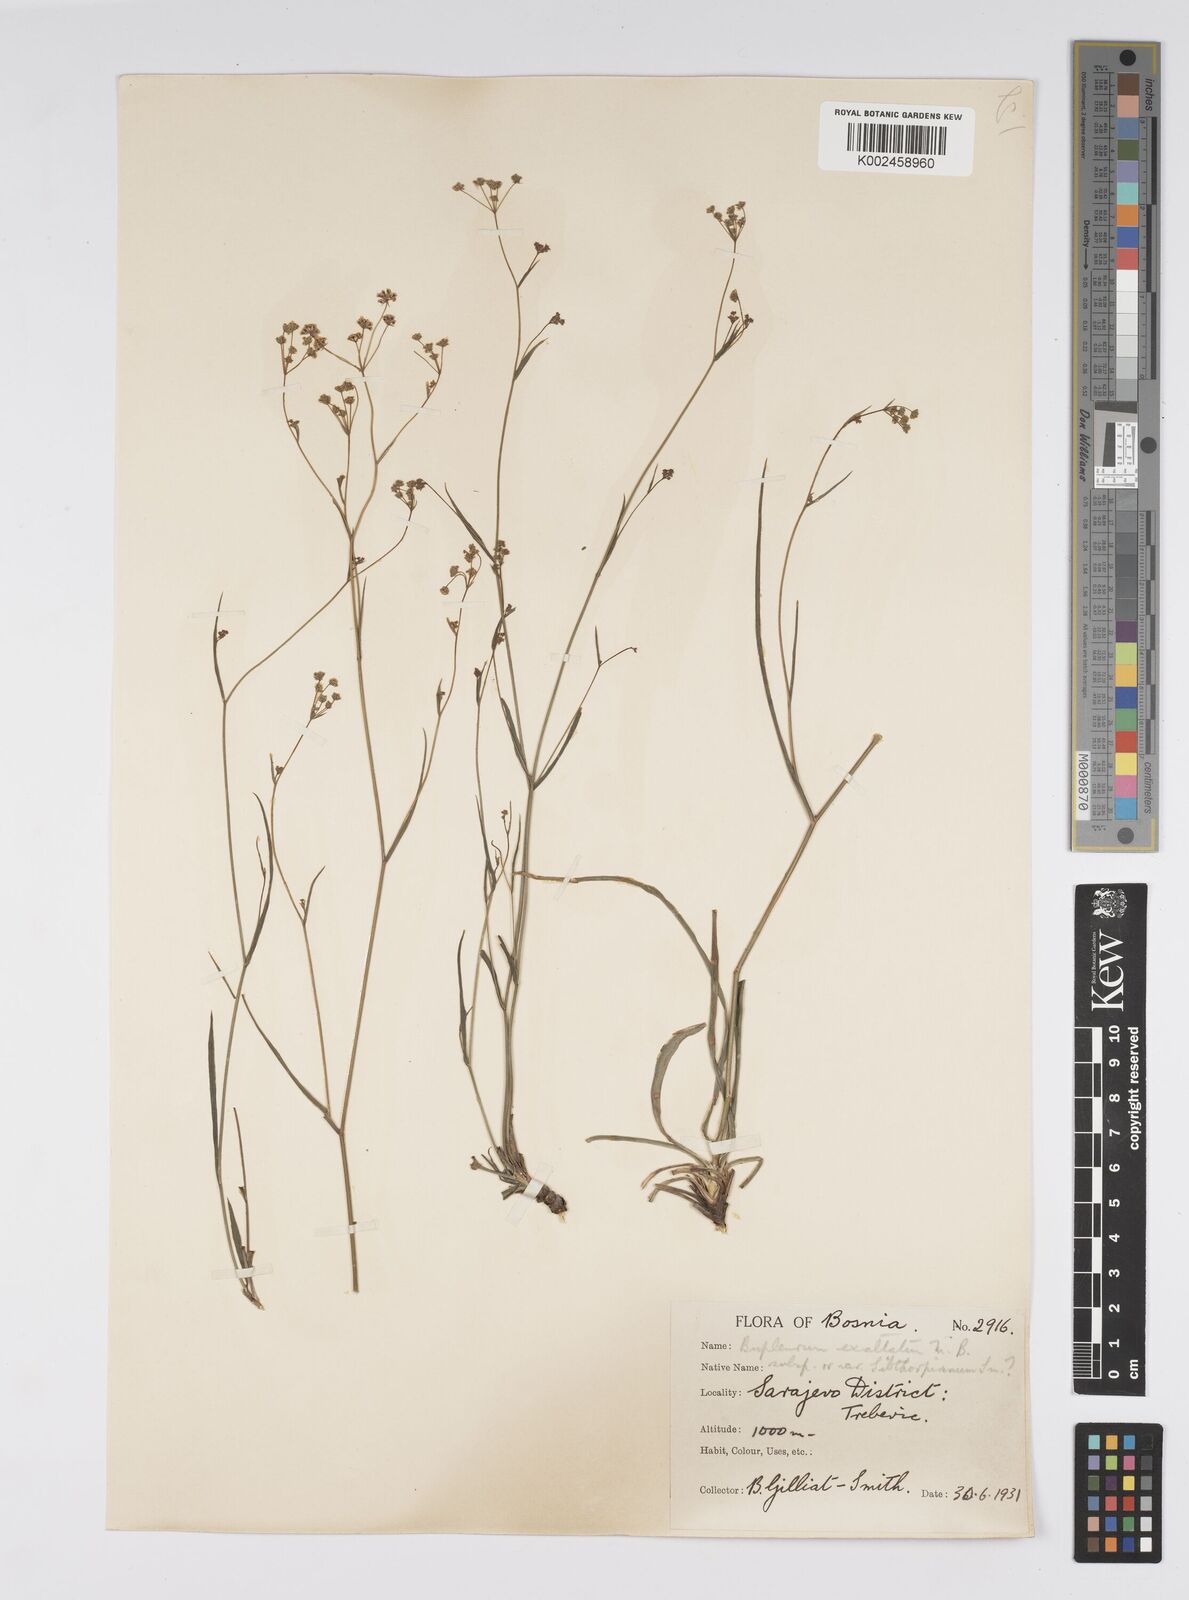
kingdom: Plantae
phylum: Tracheophyta
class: Magnoliopsida
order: Apiales
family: Apiaceae
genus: Bupleurum
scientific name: Bupleurum falcatum
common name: Sickle-leaved hare's-ear
